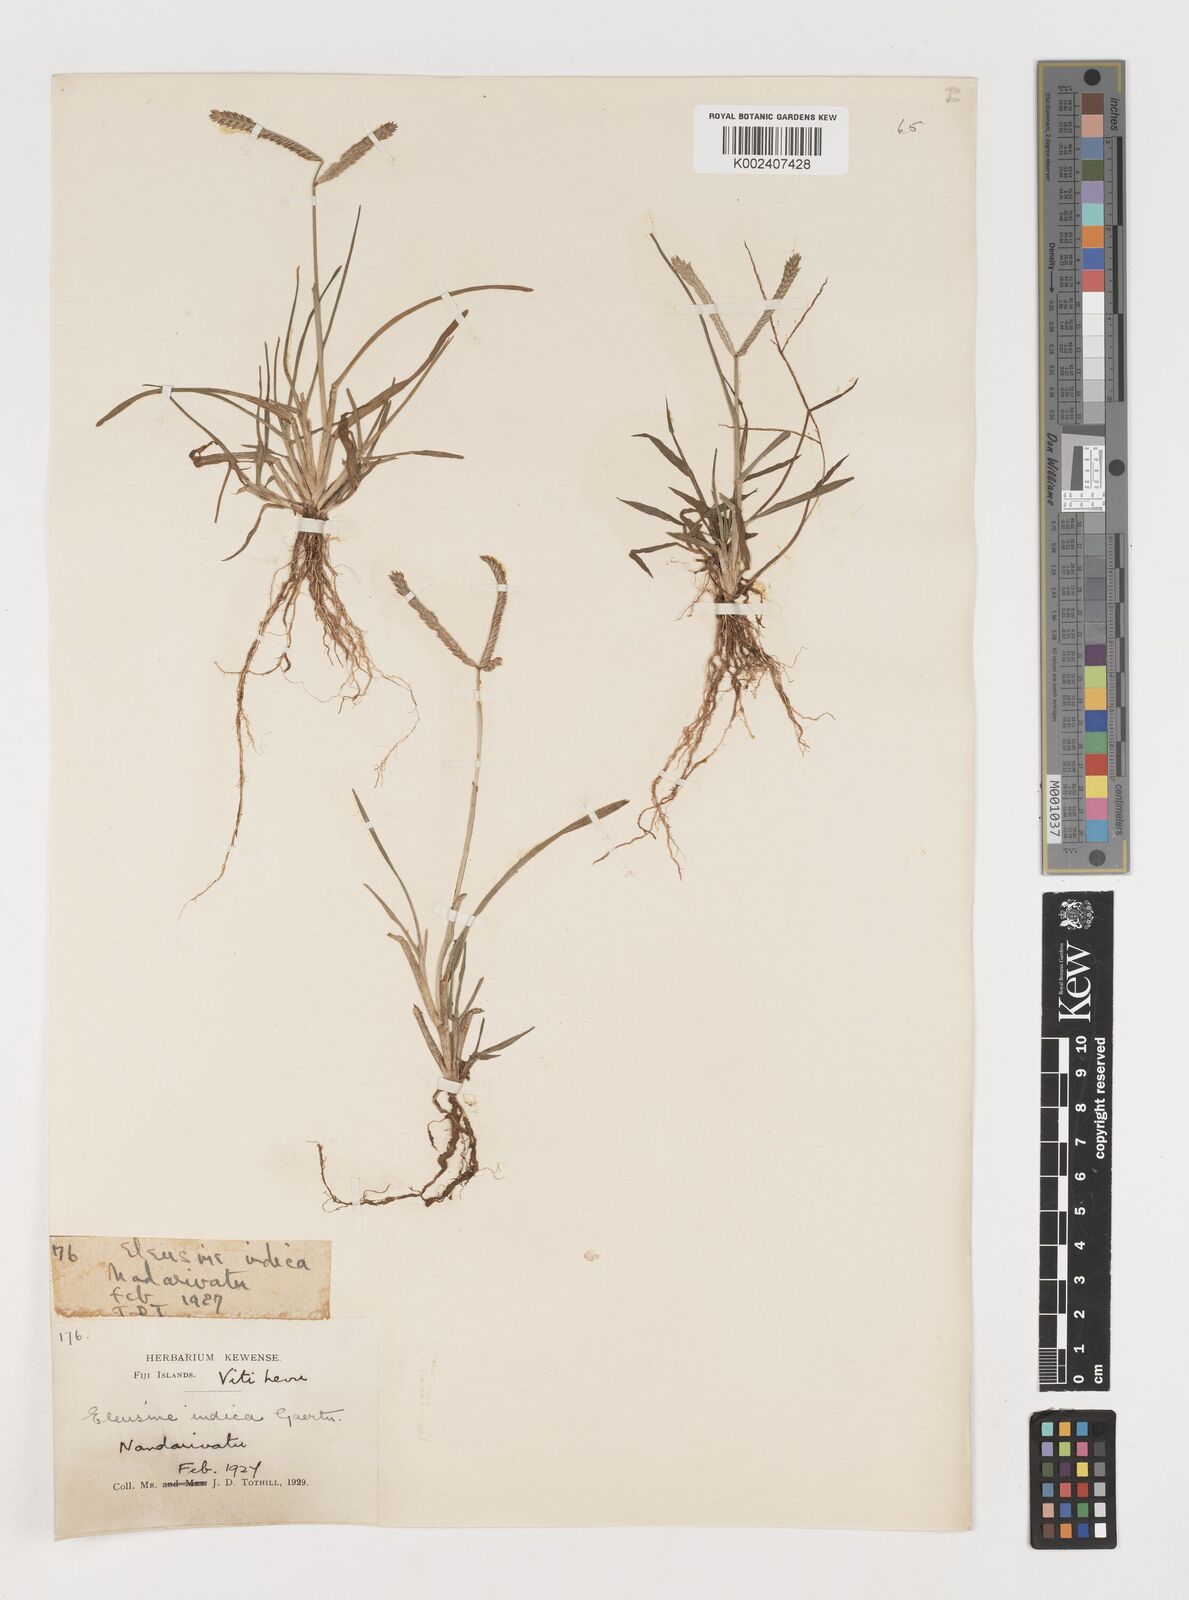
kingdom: Plantae
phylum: Tracheophyta
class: Liliopsida
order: Poales
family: Poaceae
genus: Eleusine
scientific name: Eleusine indica
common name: Yard-grass
